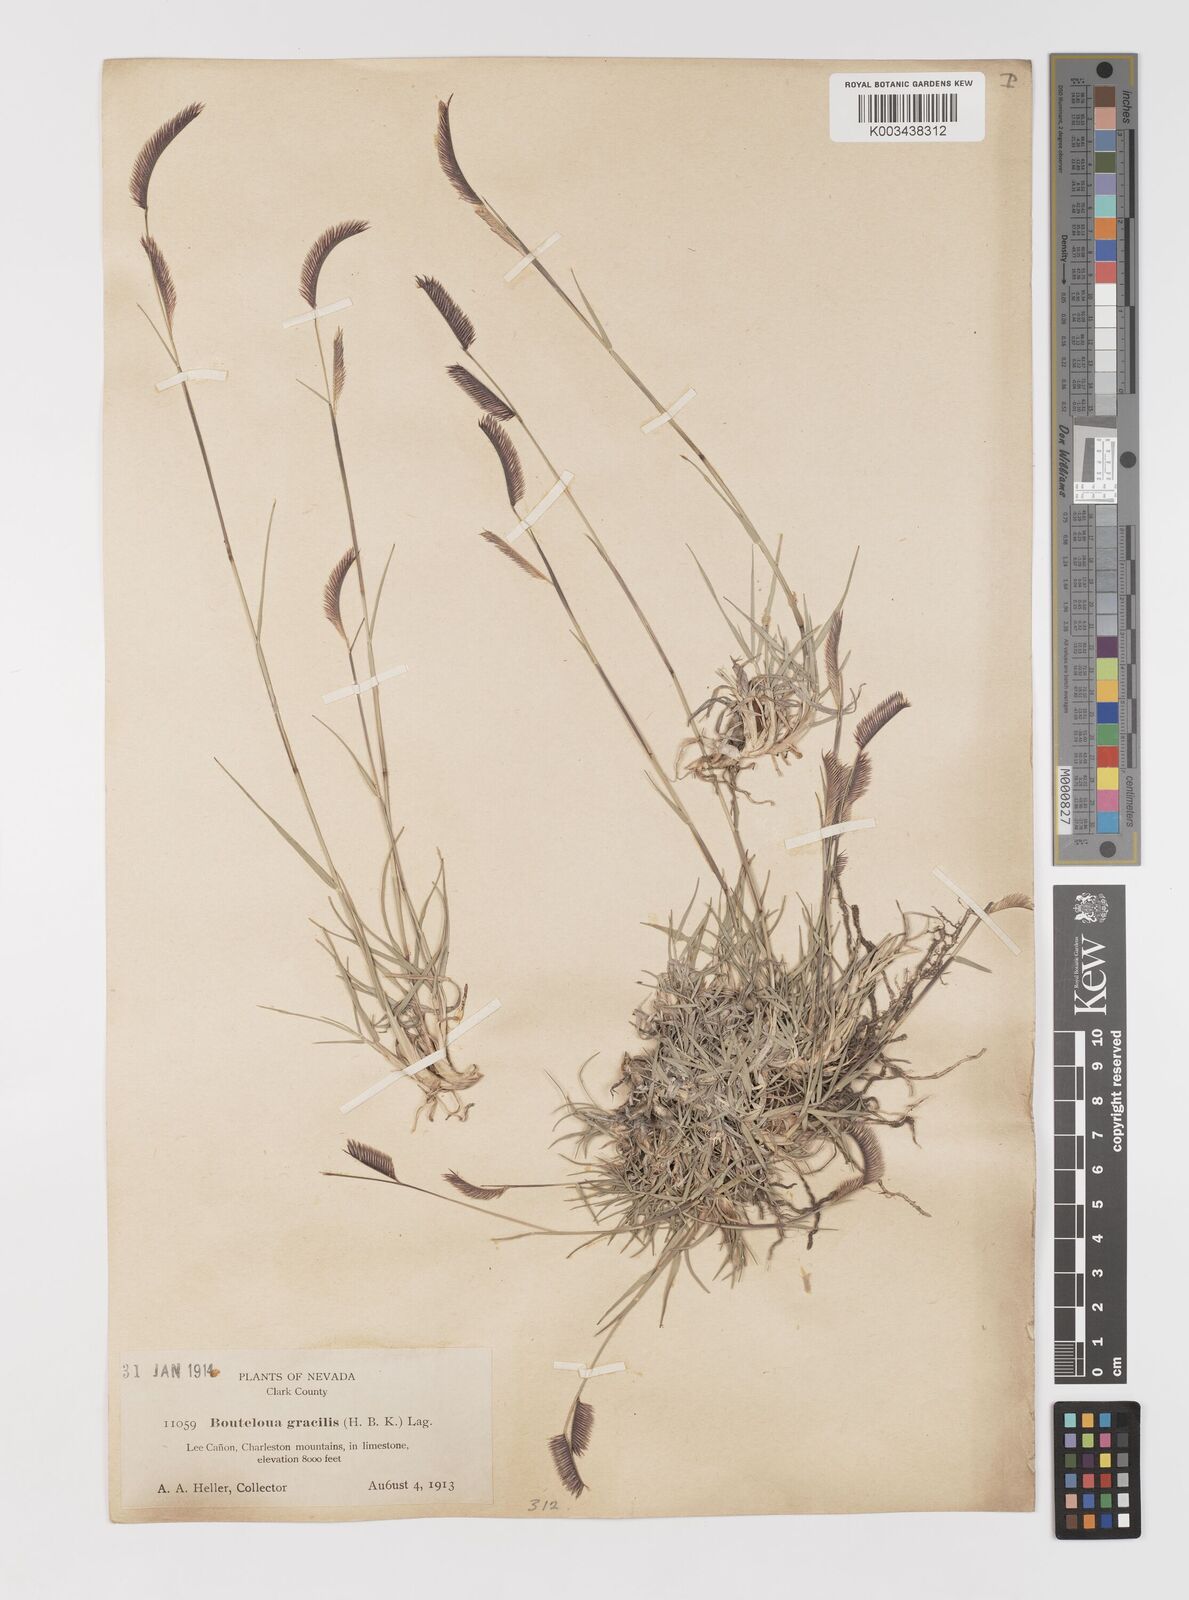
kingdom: Plantae
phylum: Tracheophyta
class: Liliopsida
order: Poales
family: Poaceae
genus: Bouteloua
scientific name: Bouteloua
